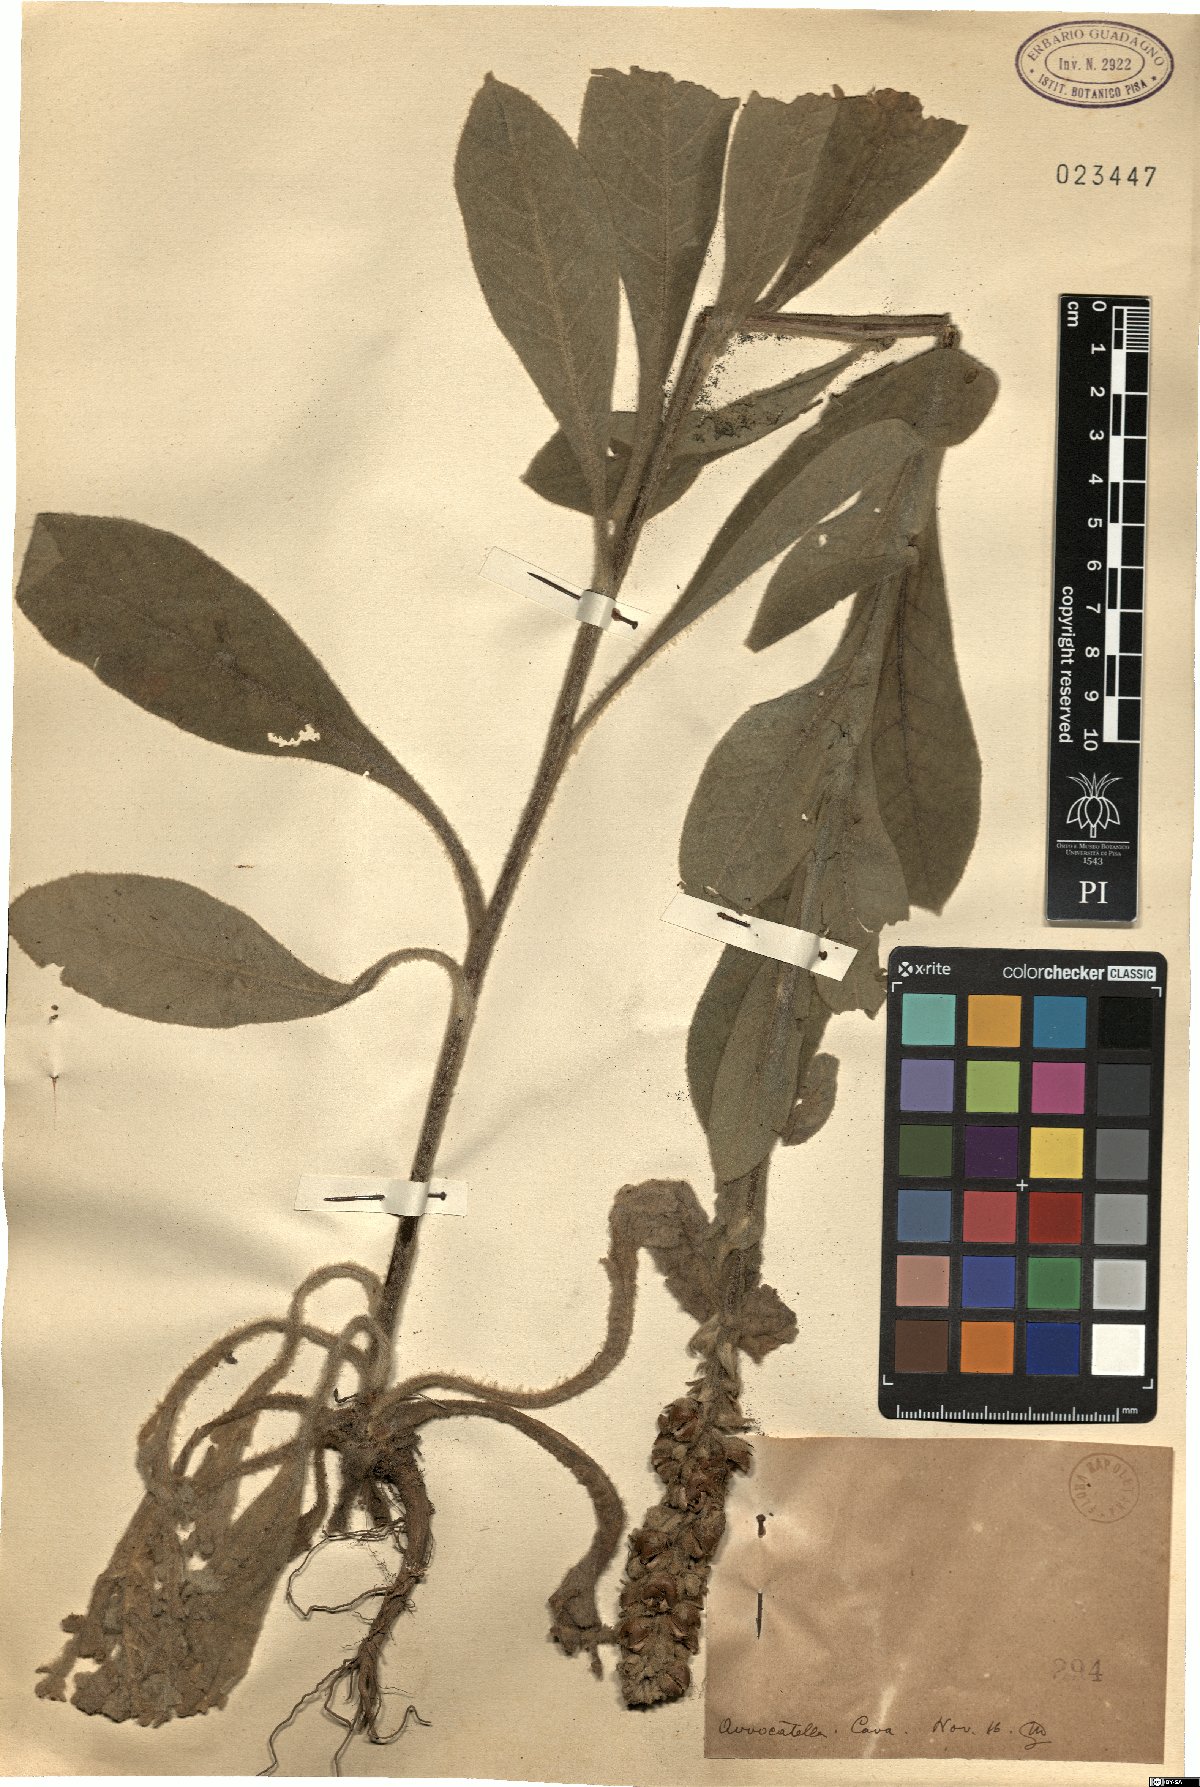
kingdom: Plantae
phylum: Tracheophyta
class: Magnoliopsida
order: Lamiales
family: Scrophulariaceae
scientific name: Scrophulariaceae
